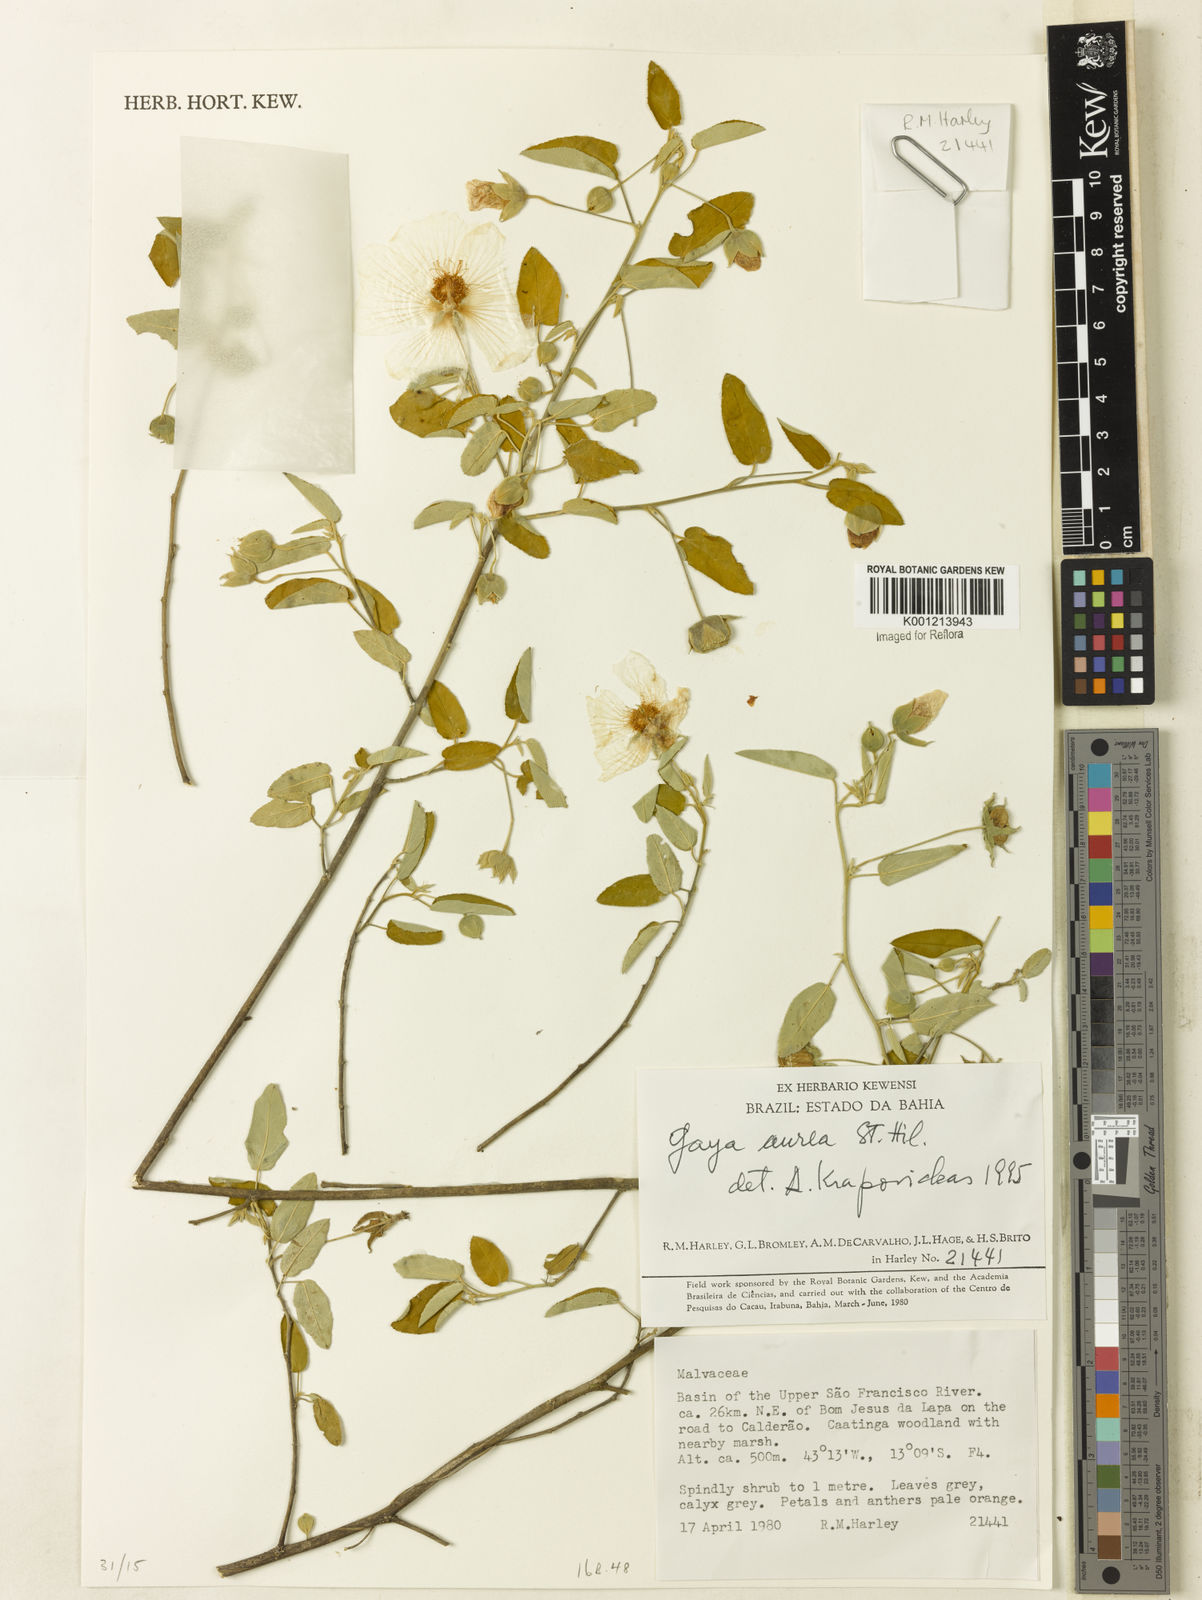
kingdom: Plantae
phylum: Tracheophyta
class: Magnoliopsida
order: Malvales
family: Malvaceae
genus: Gaya
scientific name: Gaya aurea
